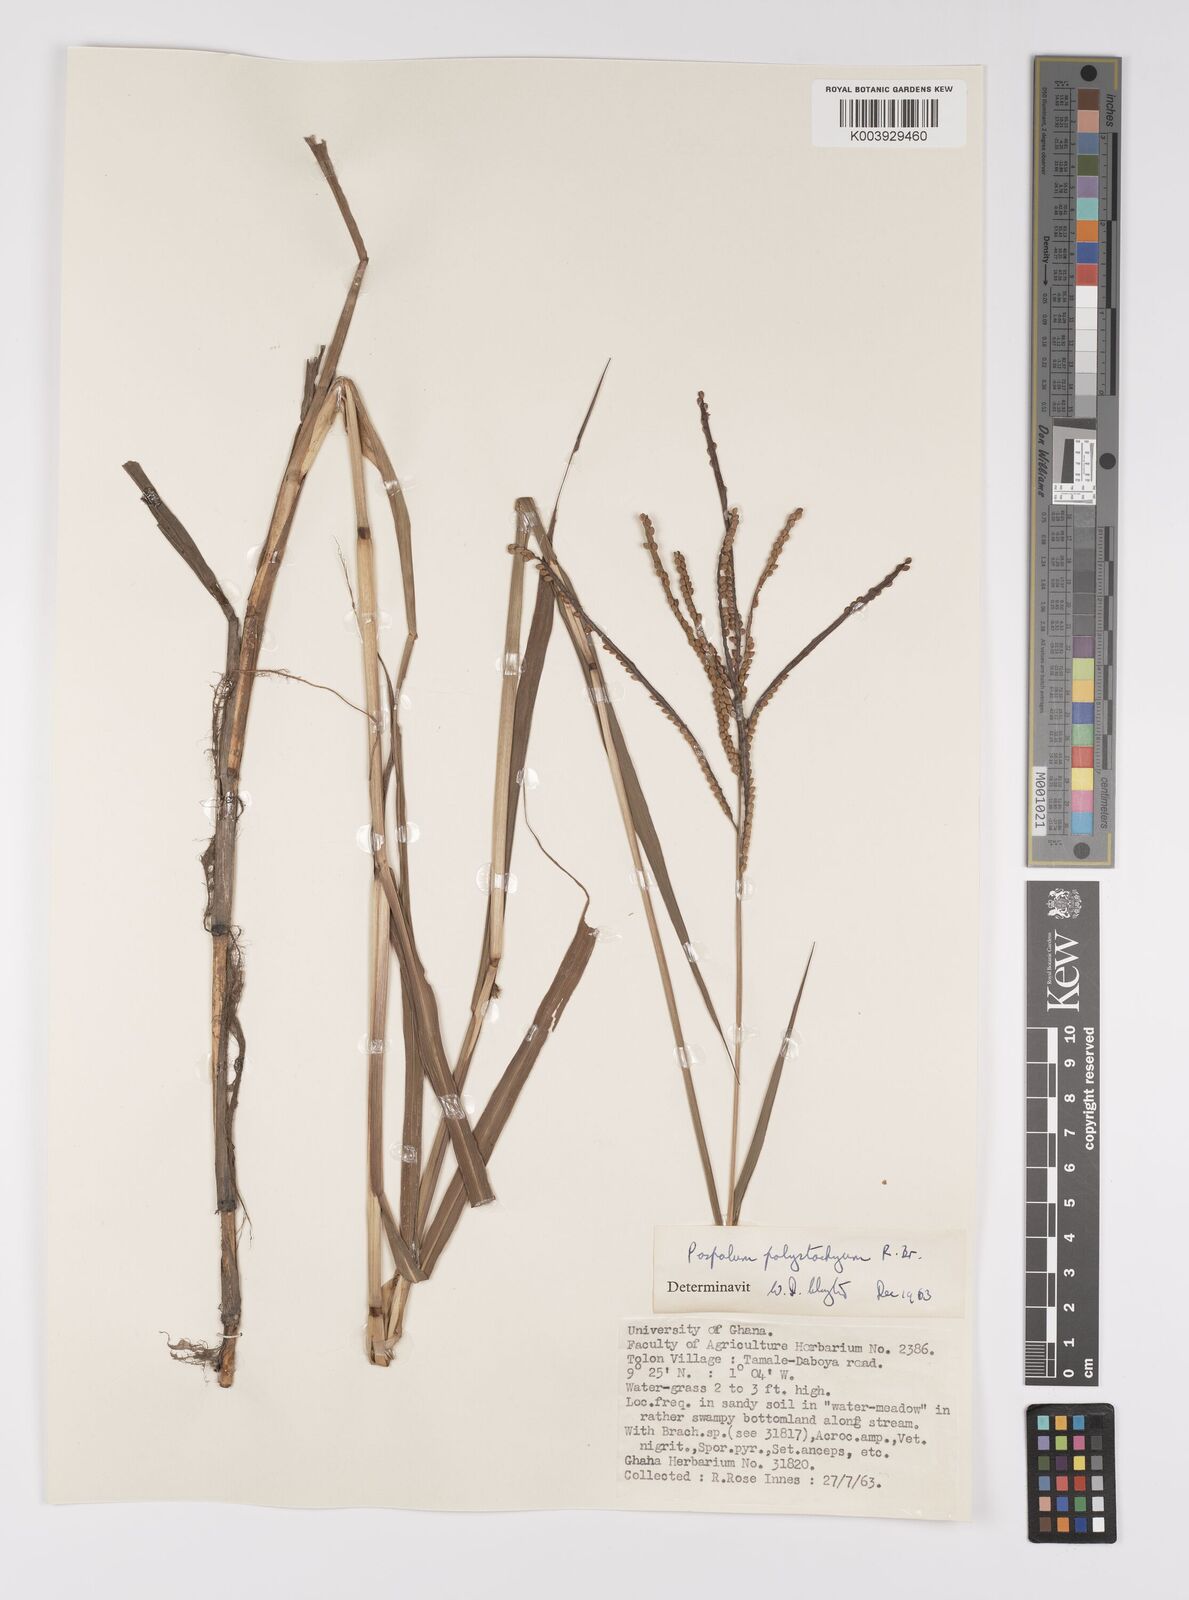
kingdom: Plantae
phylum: Tracheophyta
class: Liliopsida
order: Poales
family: Poaceae
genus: Paspalum
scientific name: Paspalum scrobiculatum
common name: Kodo millet
